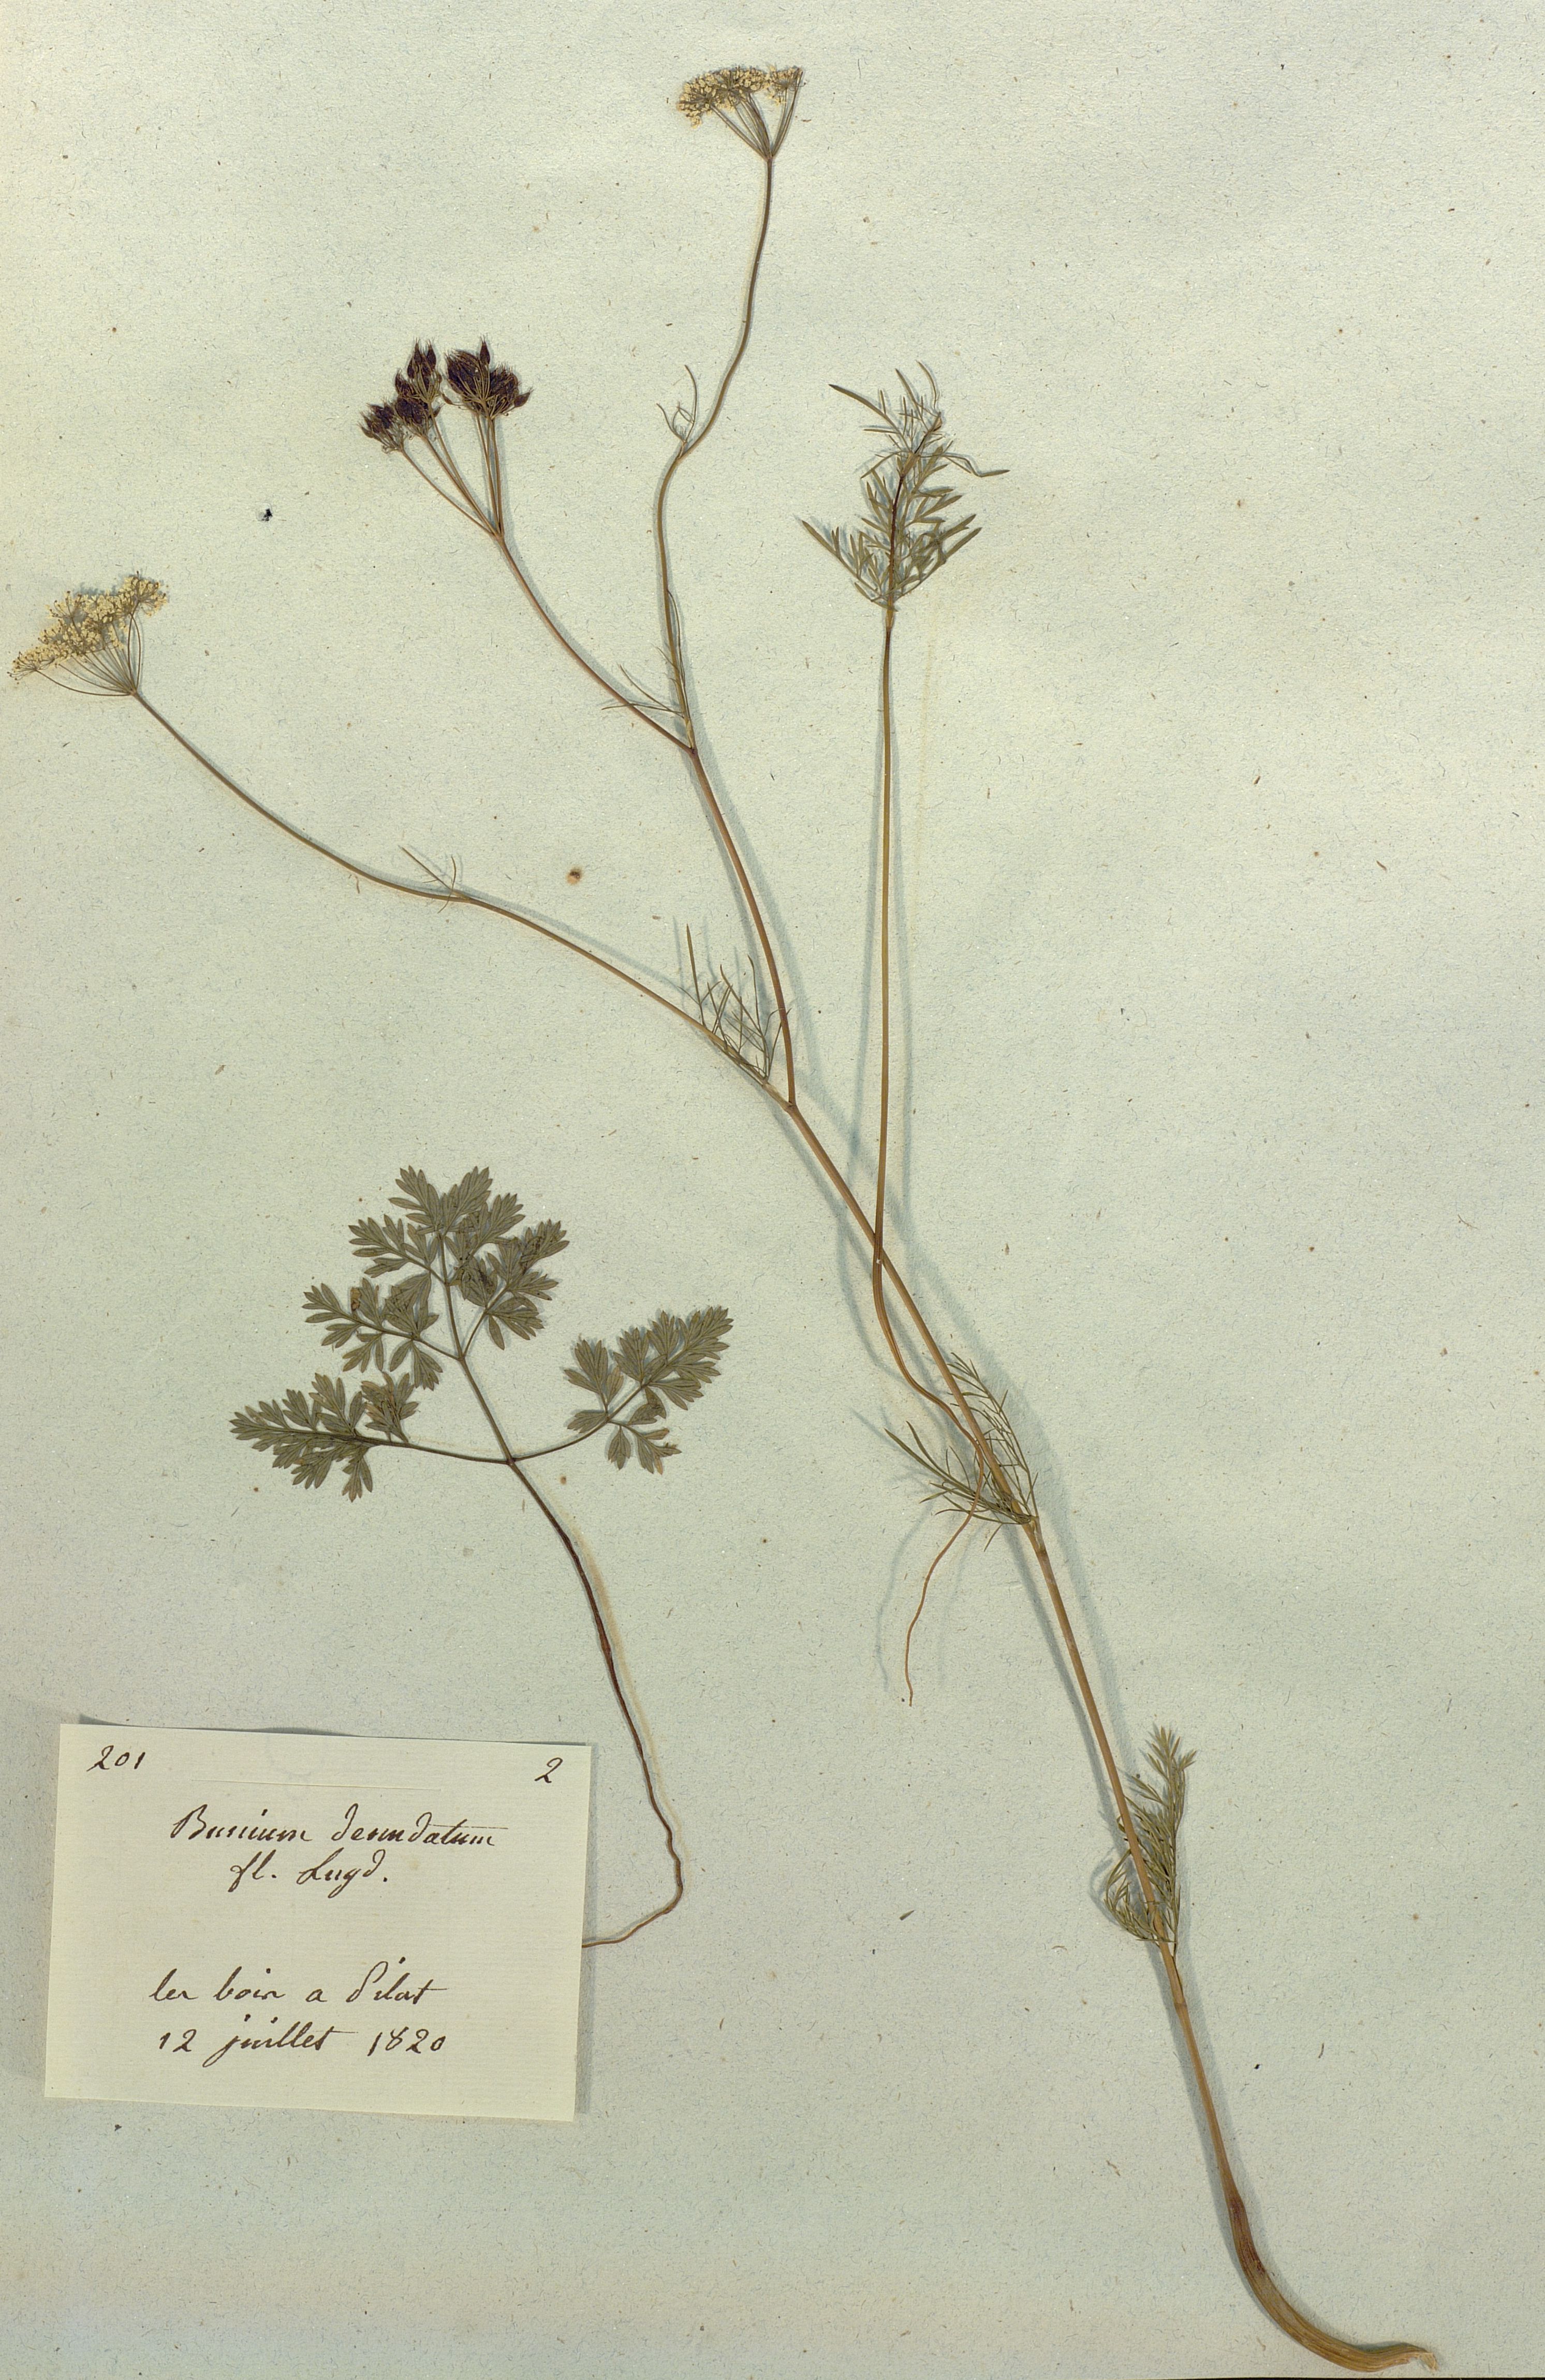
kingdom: Plantae
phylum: Tracheophyta
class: Magnoliopsida
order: Apiales
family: Apiaceae
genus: Conopodium
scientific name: Conopodium majus
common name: Pignut
